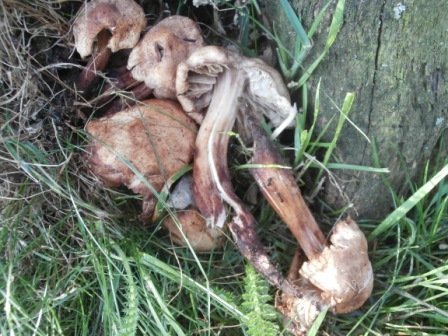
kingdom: Fungi
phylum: Basidiomycota
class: Agaricomycetes
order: Agaricales
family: Omphalotaceae
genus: Gymnopus
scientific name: Gymnopus fusipes
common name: tenstokket fladhat
